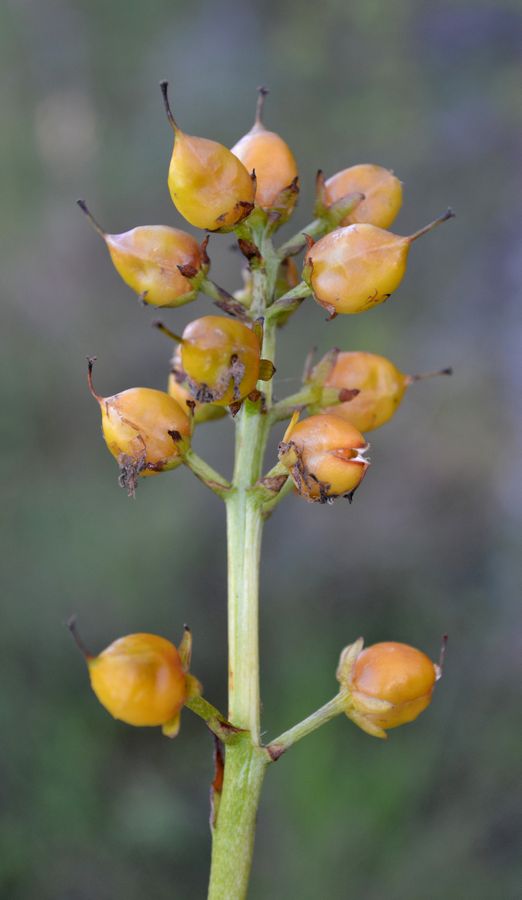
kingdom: Plantae
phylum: Tracheophyta
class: Magnoliopsida
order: Asterales
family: Menyanthaceae
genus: Menyanthes
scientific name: Menyanthes trifoliata
